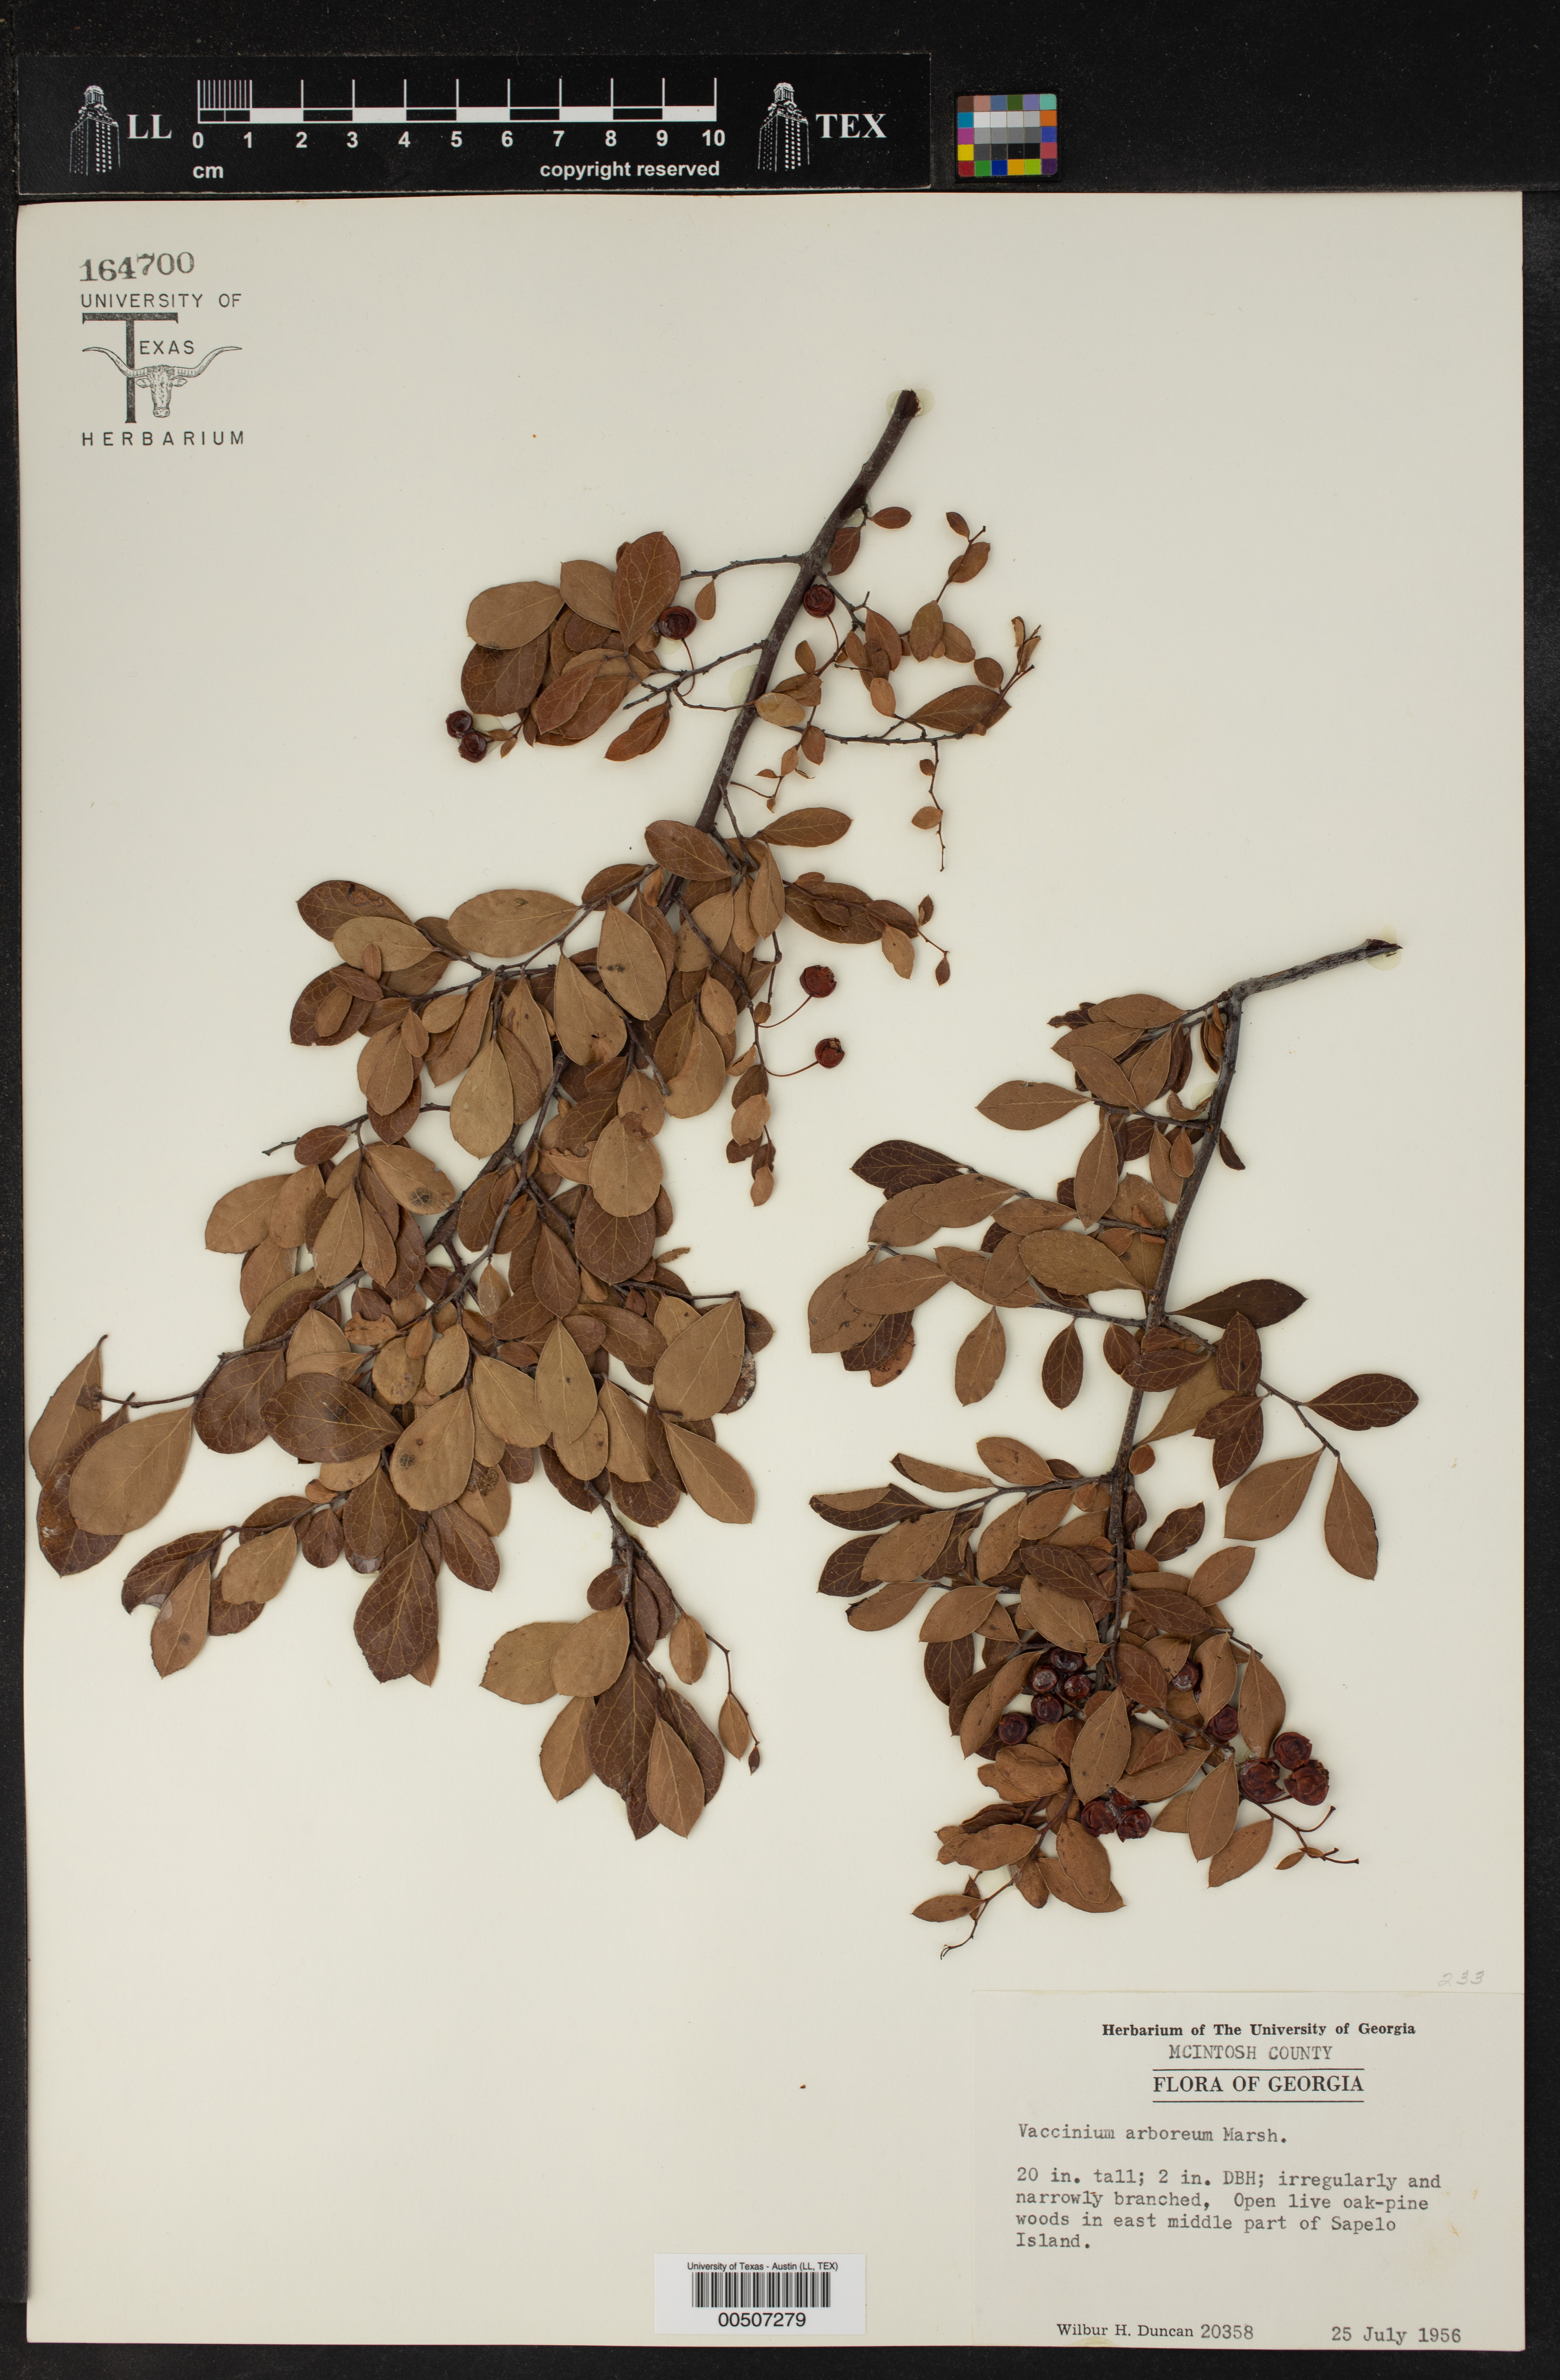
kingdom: Plantae
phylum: Tracheophyta
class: Magnoliopsida
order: Ericales
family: Ericaceae
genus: Vaccinium
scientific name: Vaccinium arboreum
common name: Farkleberry
